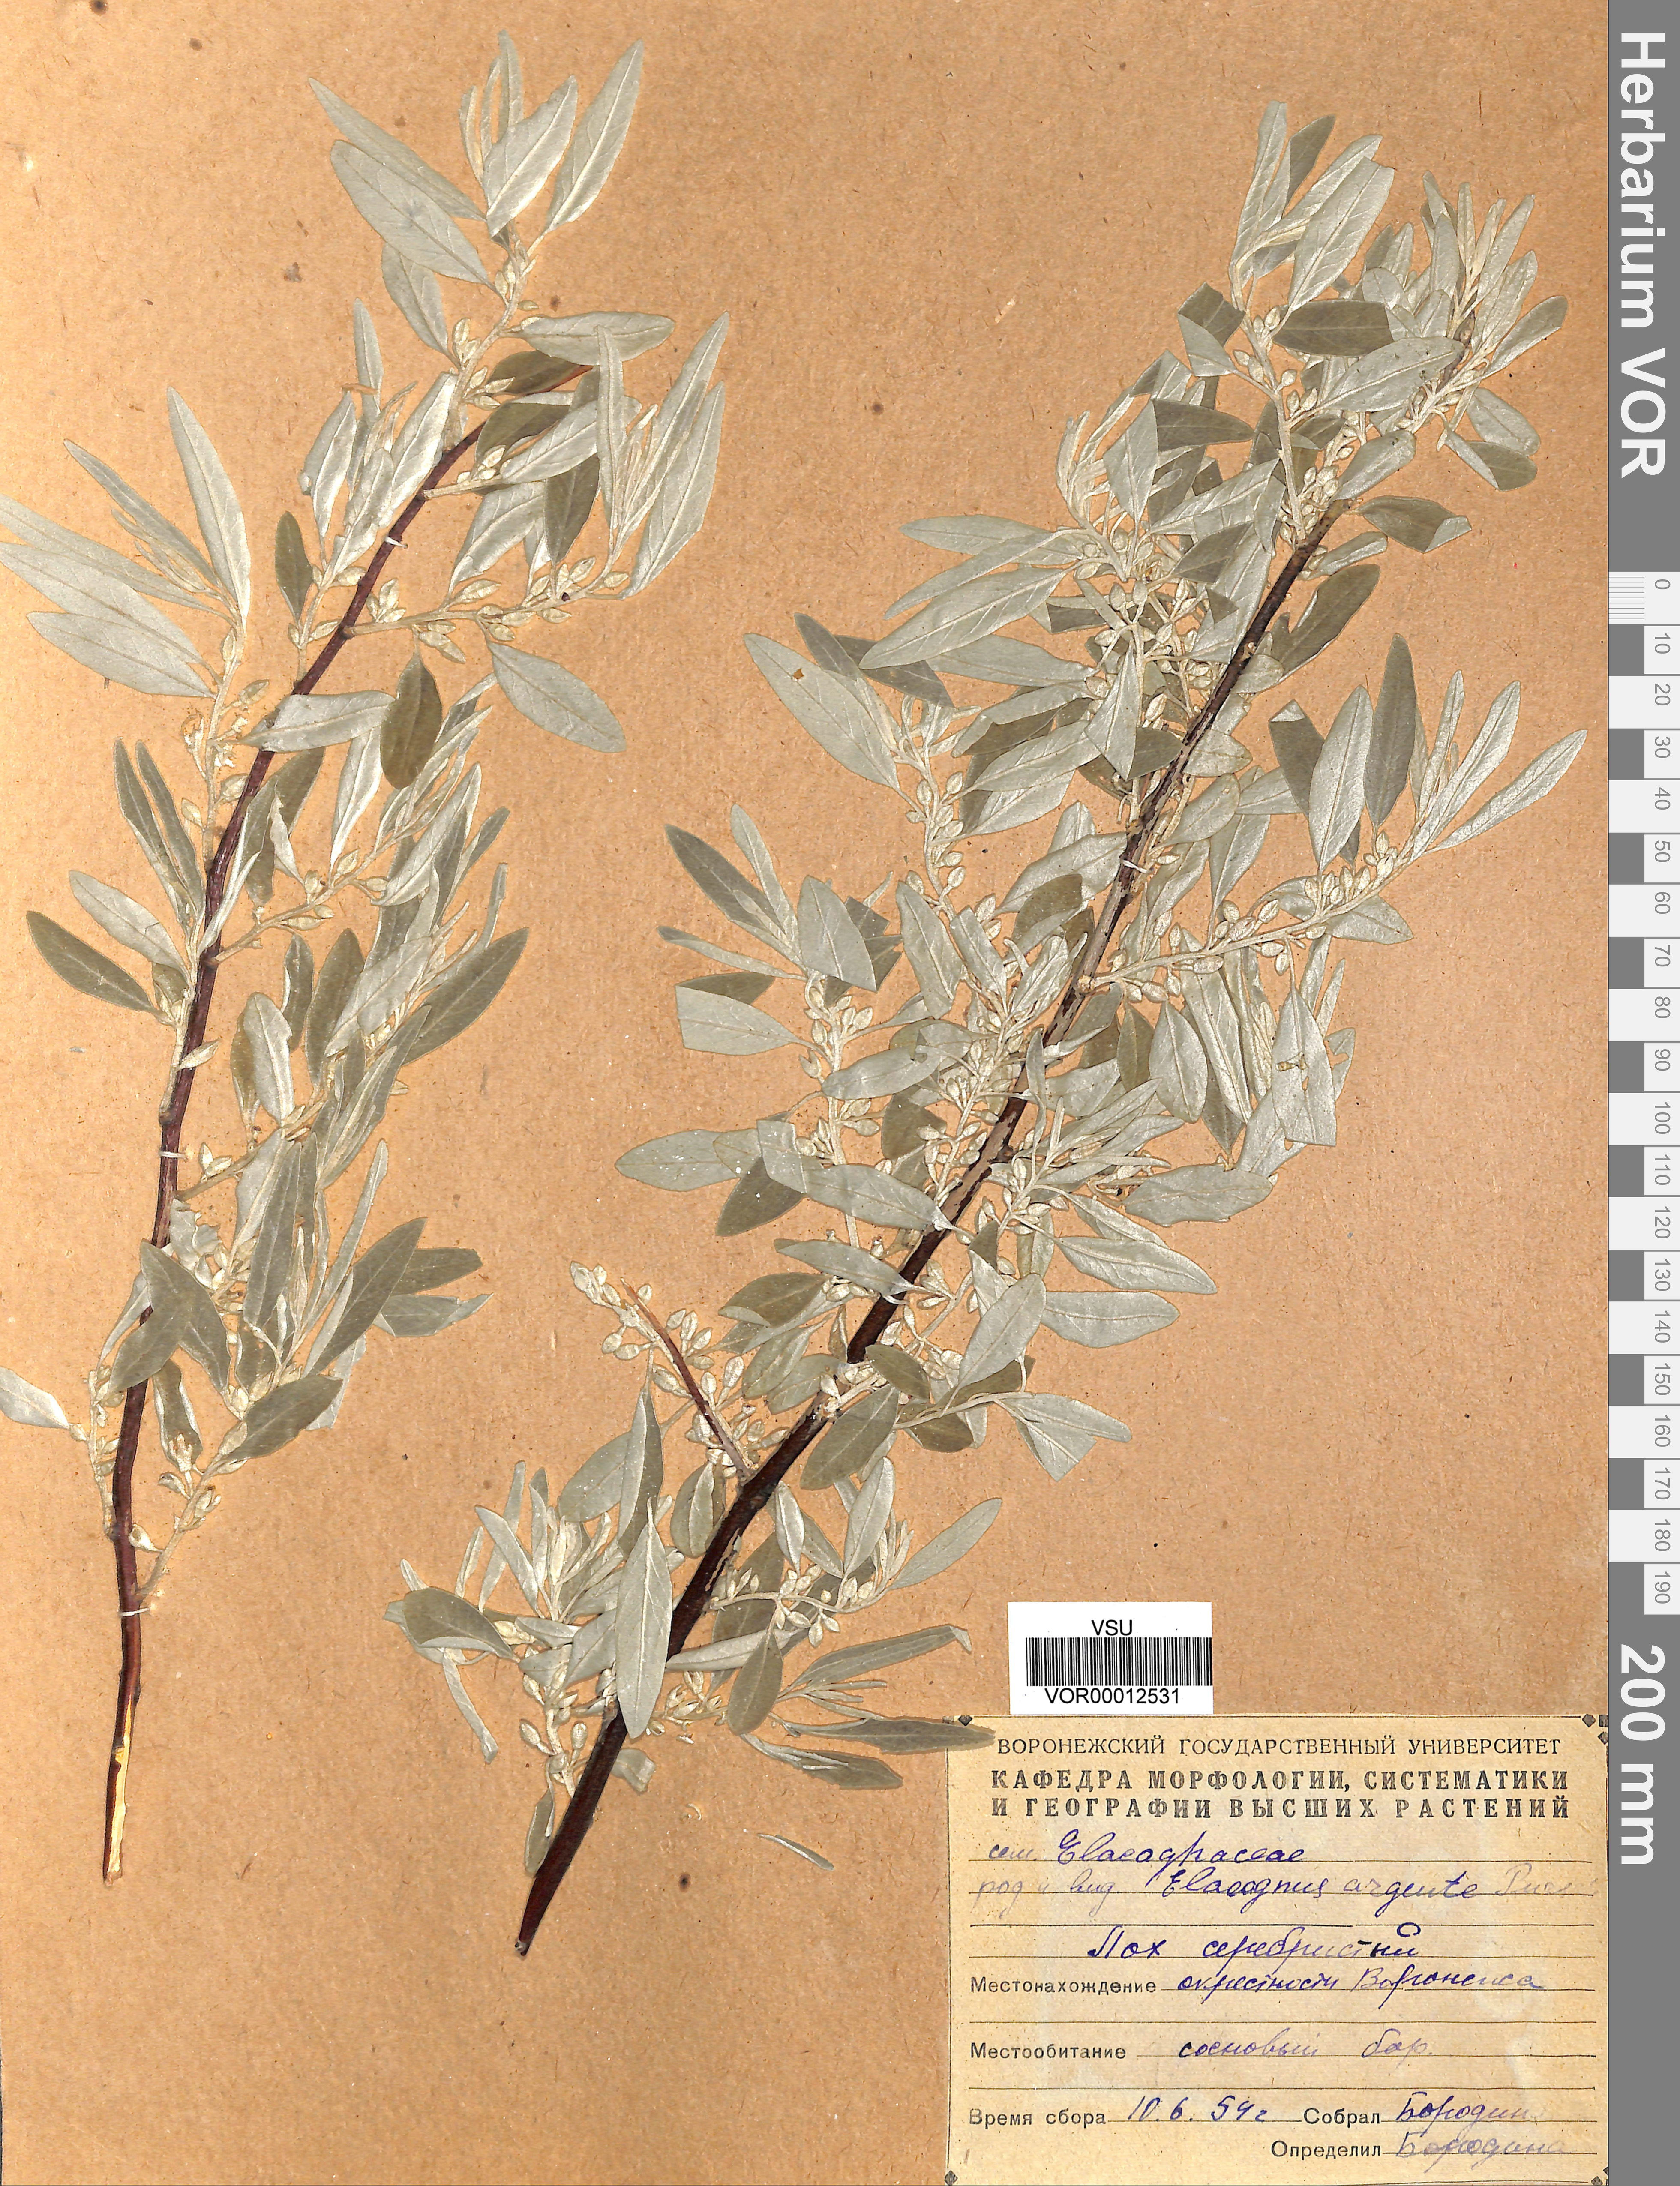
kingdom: Plantae
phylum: Tracheophyta
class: Magnoliopsida
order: Rosales
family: Elaeagnaceae
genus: Elaeagnus
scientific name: Elaeagnus angustifolia
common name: Russian olive
